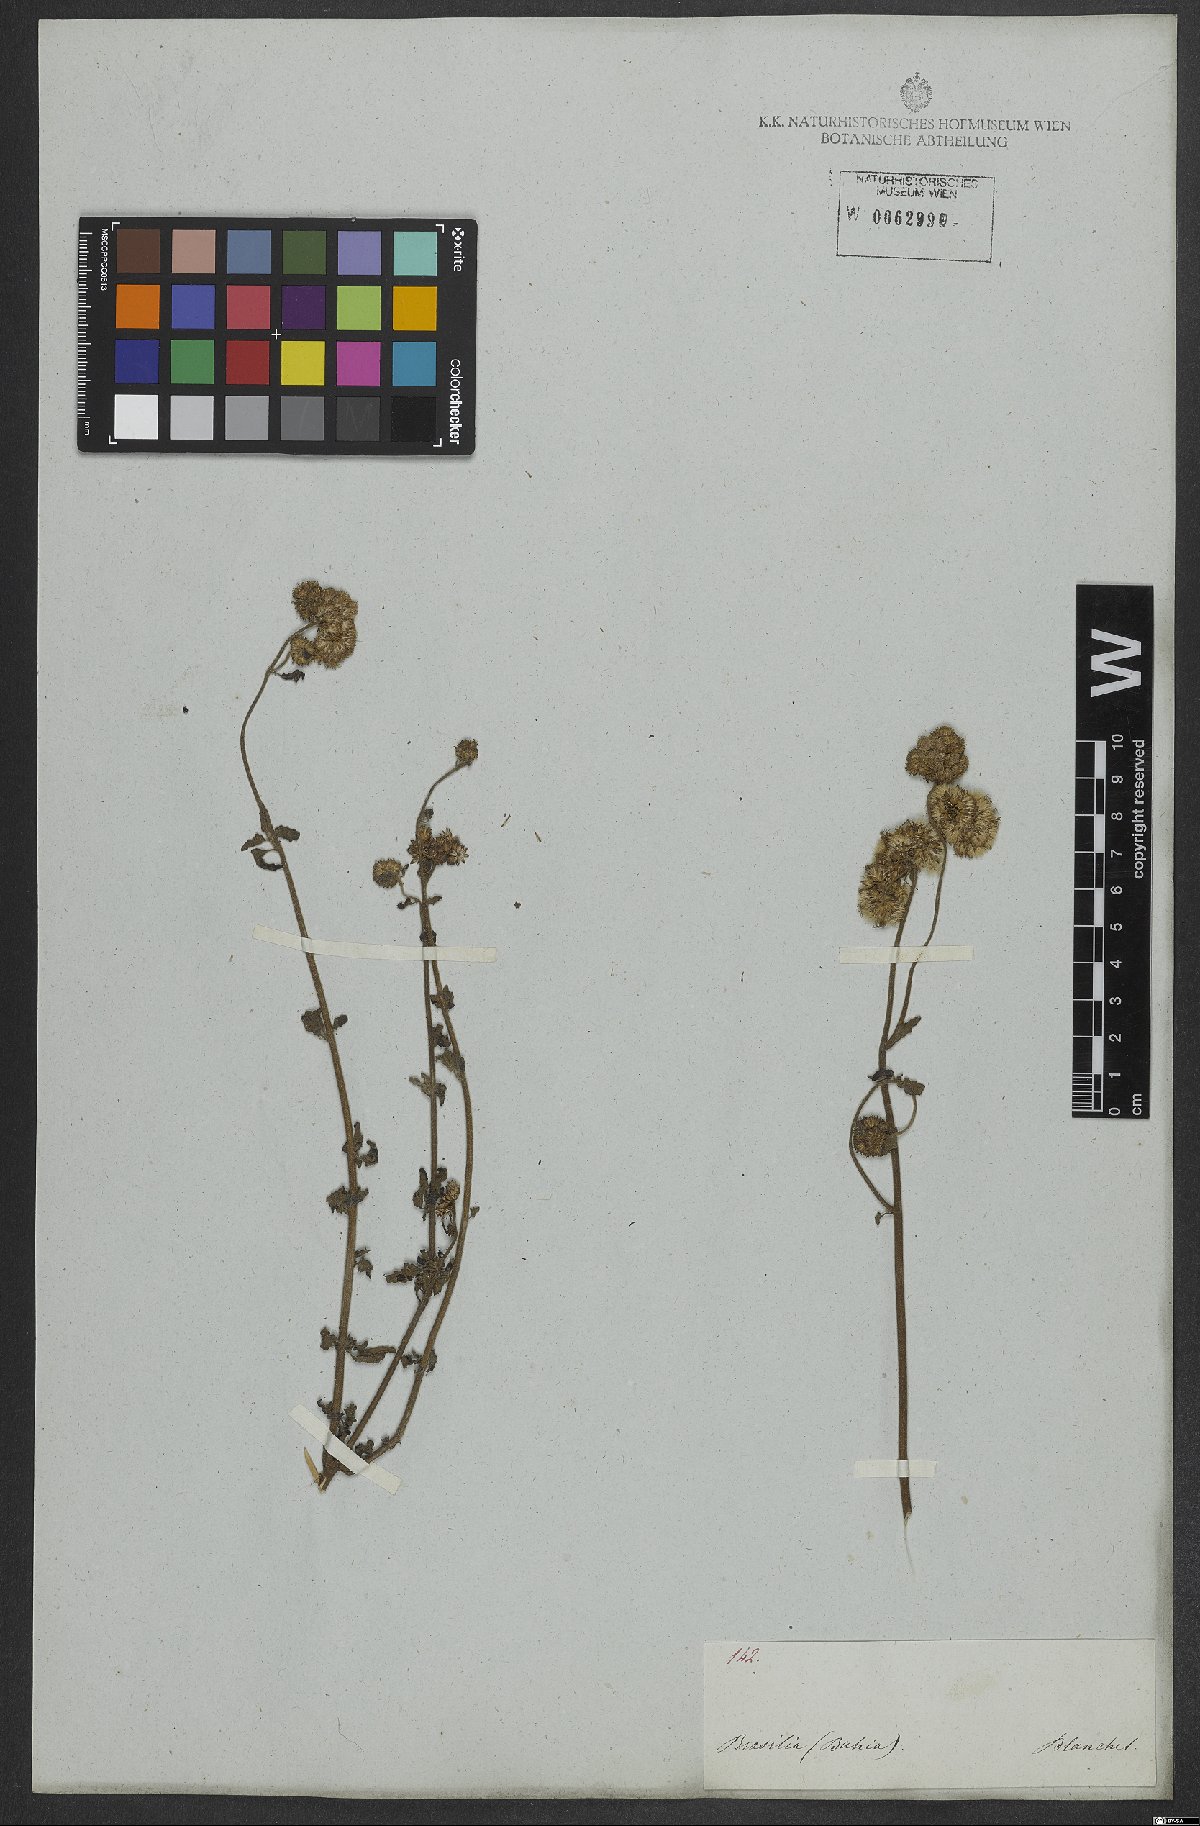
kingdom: Plantae
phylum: Tracheophyta
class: Magnoliopsida
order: Asterales
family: Asteraceae
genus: Conocliniopsis
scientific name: Conocliniopsis grossedentata
